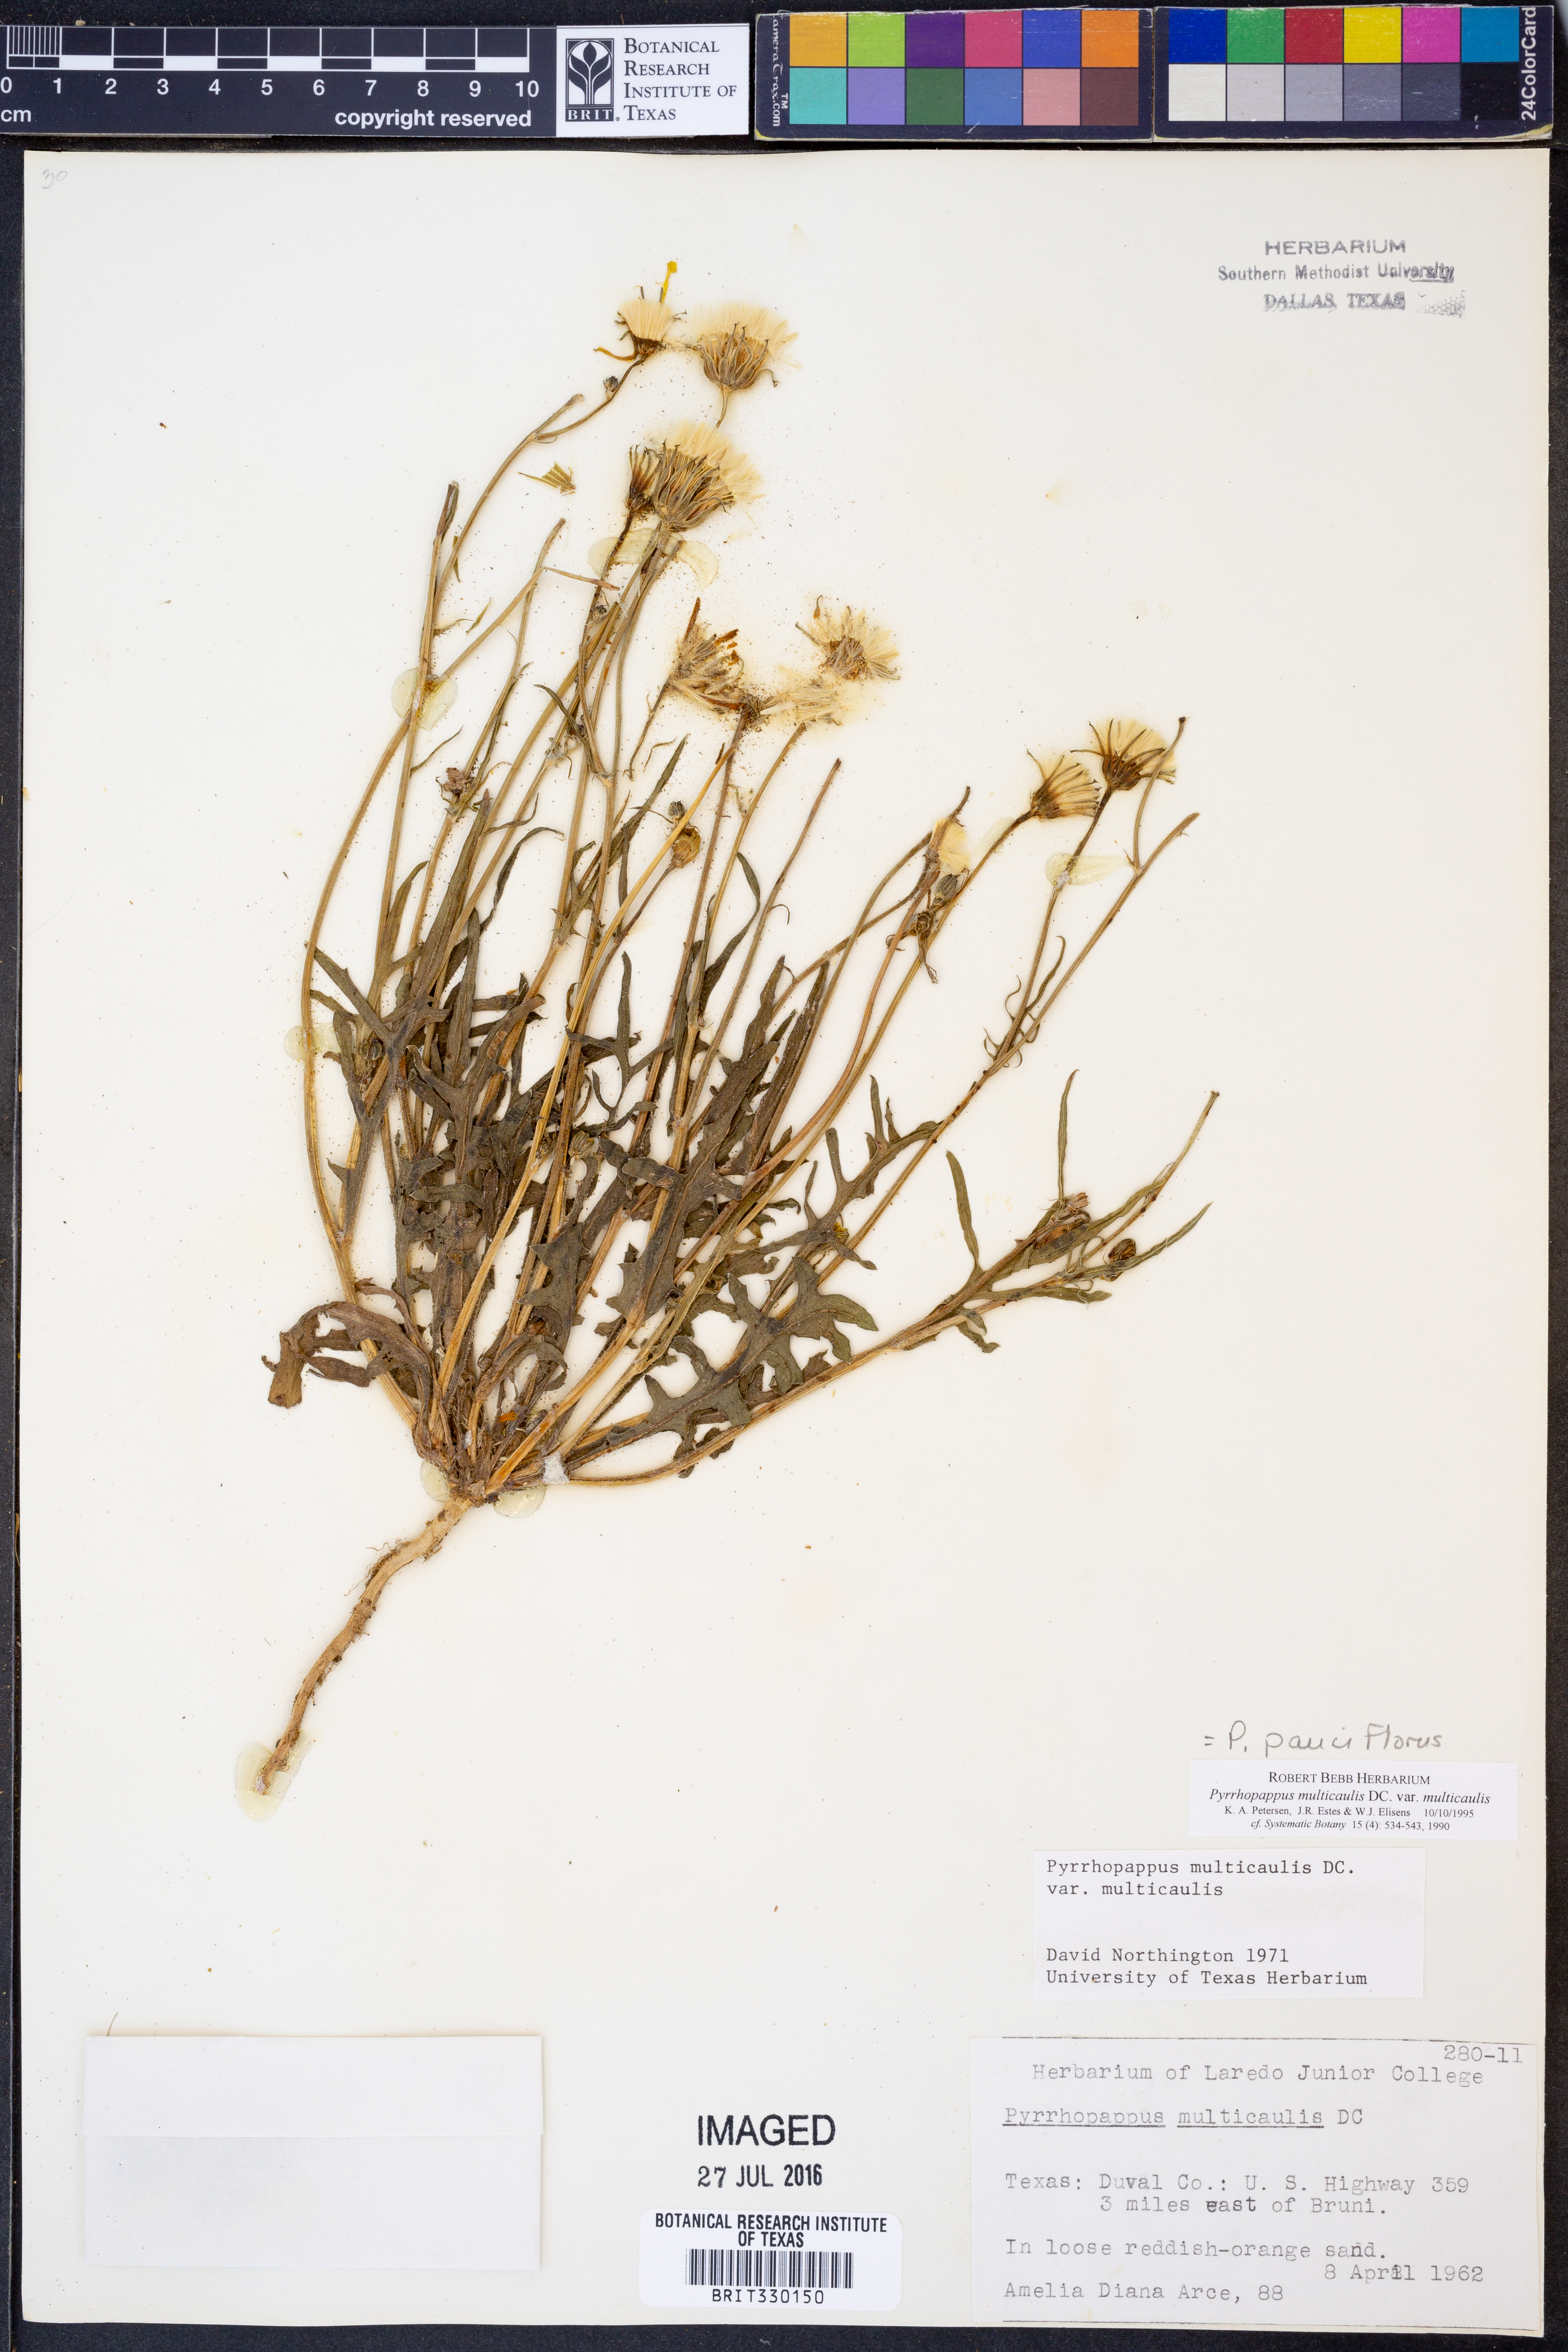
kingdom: Plantae
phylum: Tracheophyta
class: Magnoliopsida
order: Asterales
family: Asteraceae
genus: Pyrrhopappus
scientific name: Pyrrhopappus pauciflorus
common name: Texas false dandelion
